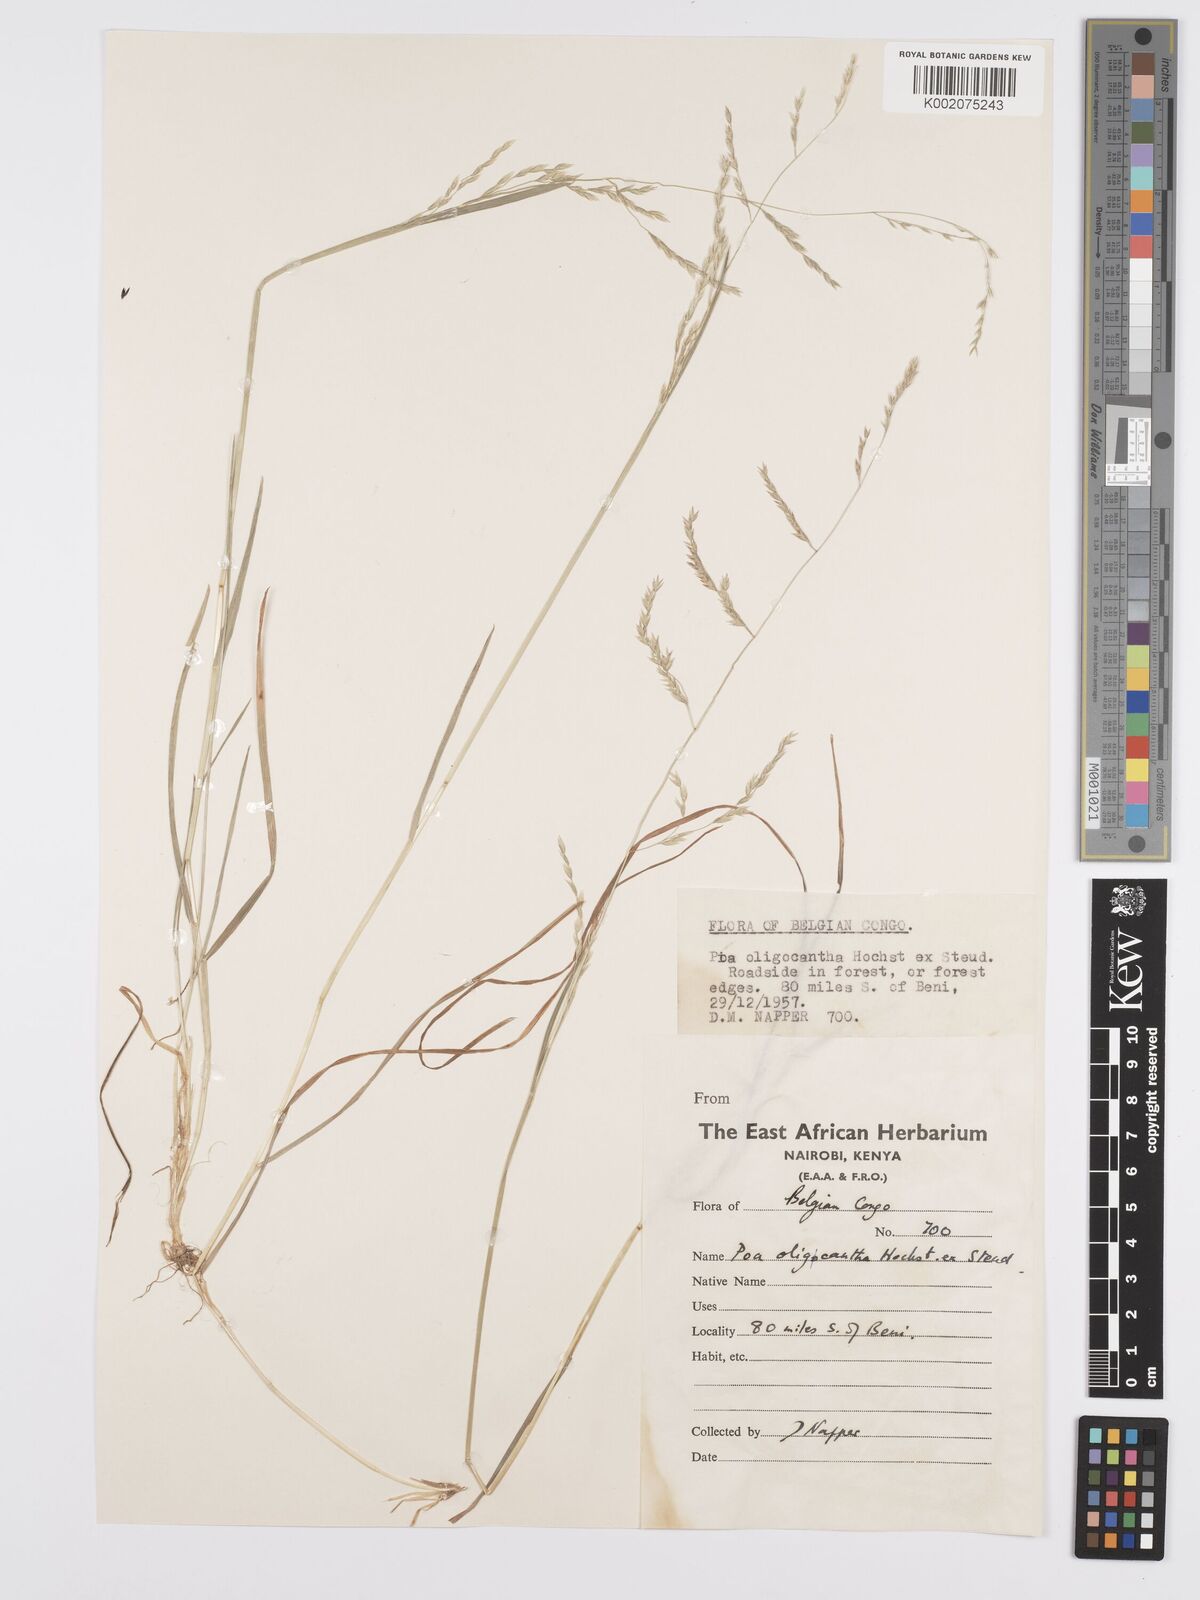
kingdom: Plantae
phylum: Tracheophyta
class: Liliopsida
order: Poales
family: Poaceae
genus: Poa
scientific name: Poa schimperiana
